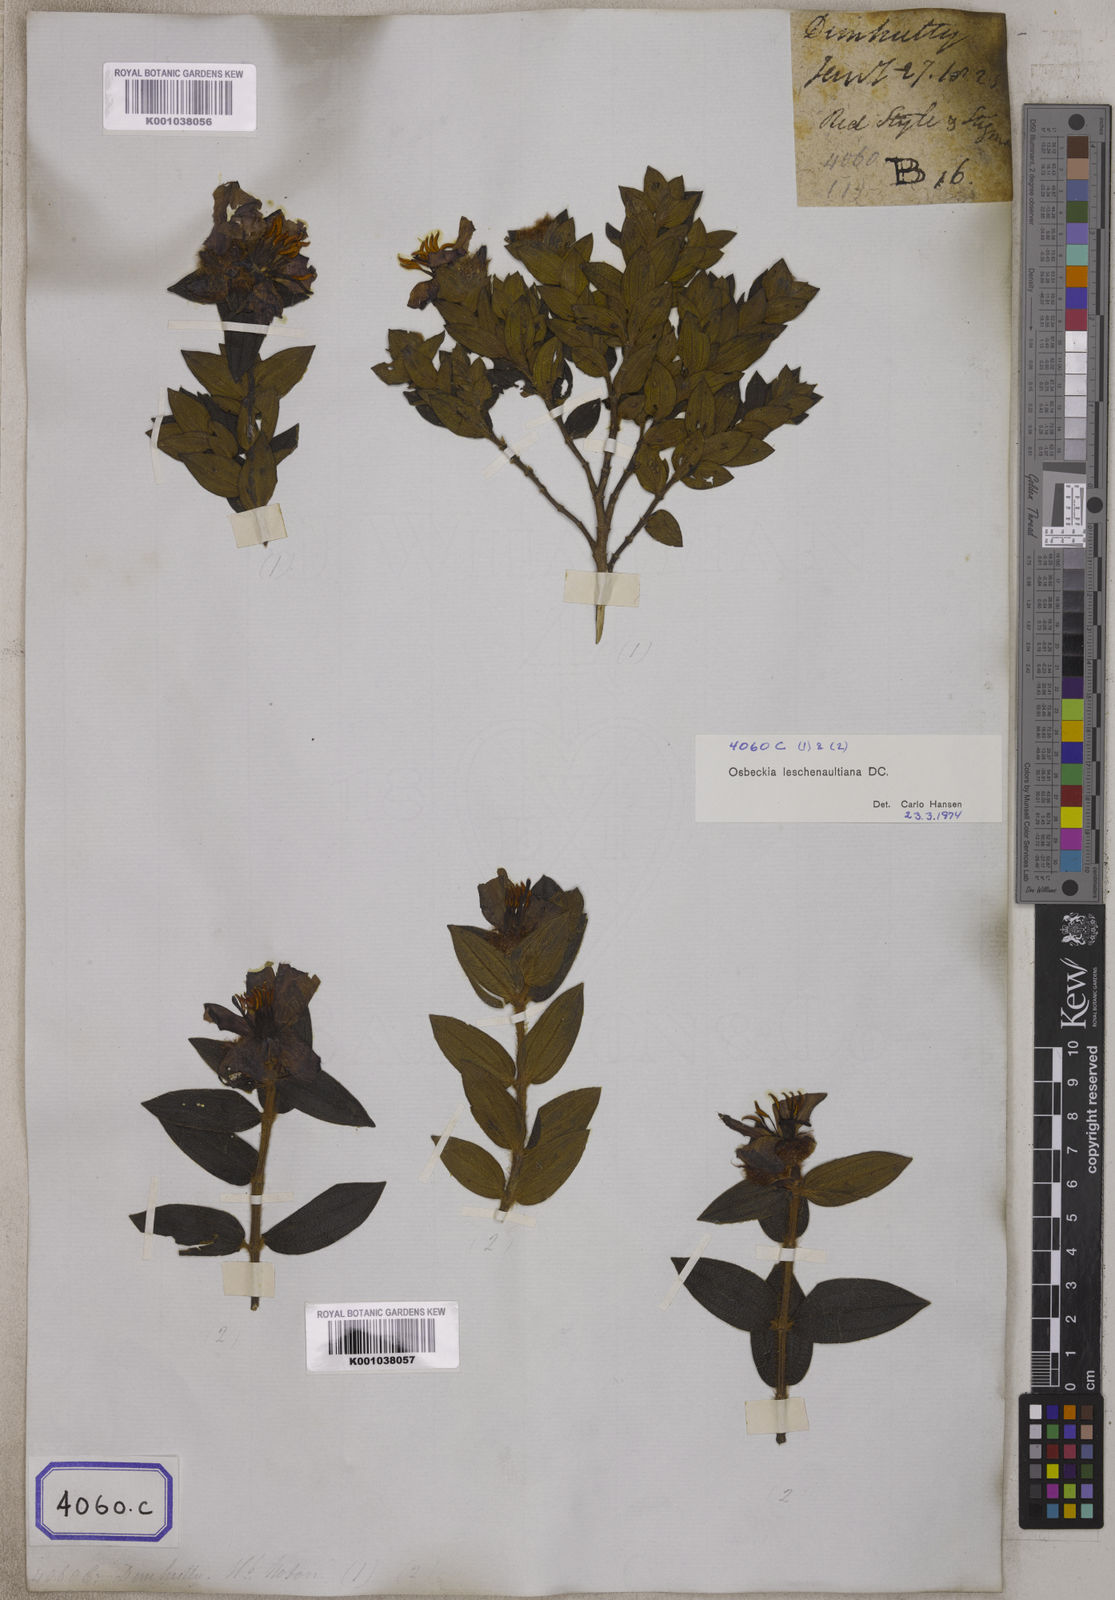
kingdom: Plantae
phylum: Tracheophyta
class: Magnoliopsida
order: Myrtales
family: Melastomataceae
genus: Osbeckia
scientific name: Osbeckia
